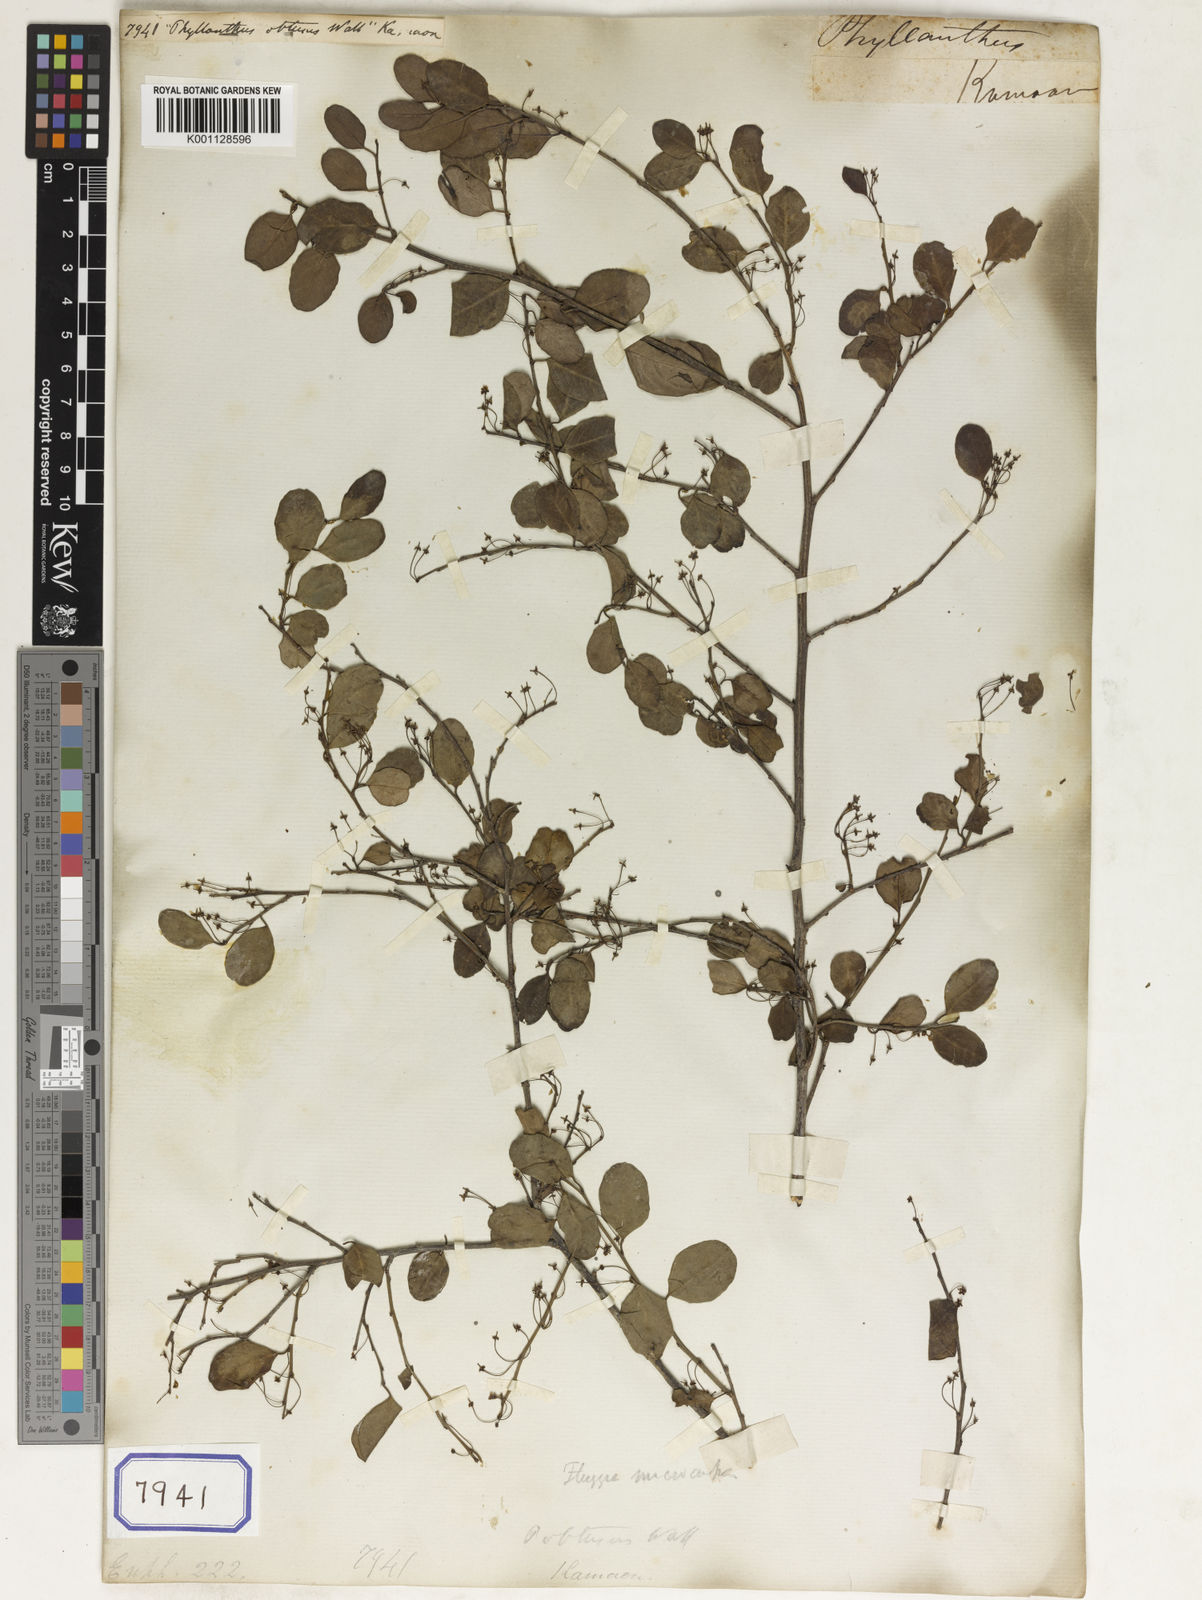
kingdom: Plantae
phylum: Tracheophyta
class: Magnoliopsida
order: Malpighiales
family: Euphorbiaceae
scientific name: Euphorbiaceae
